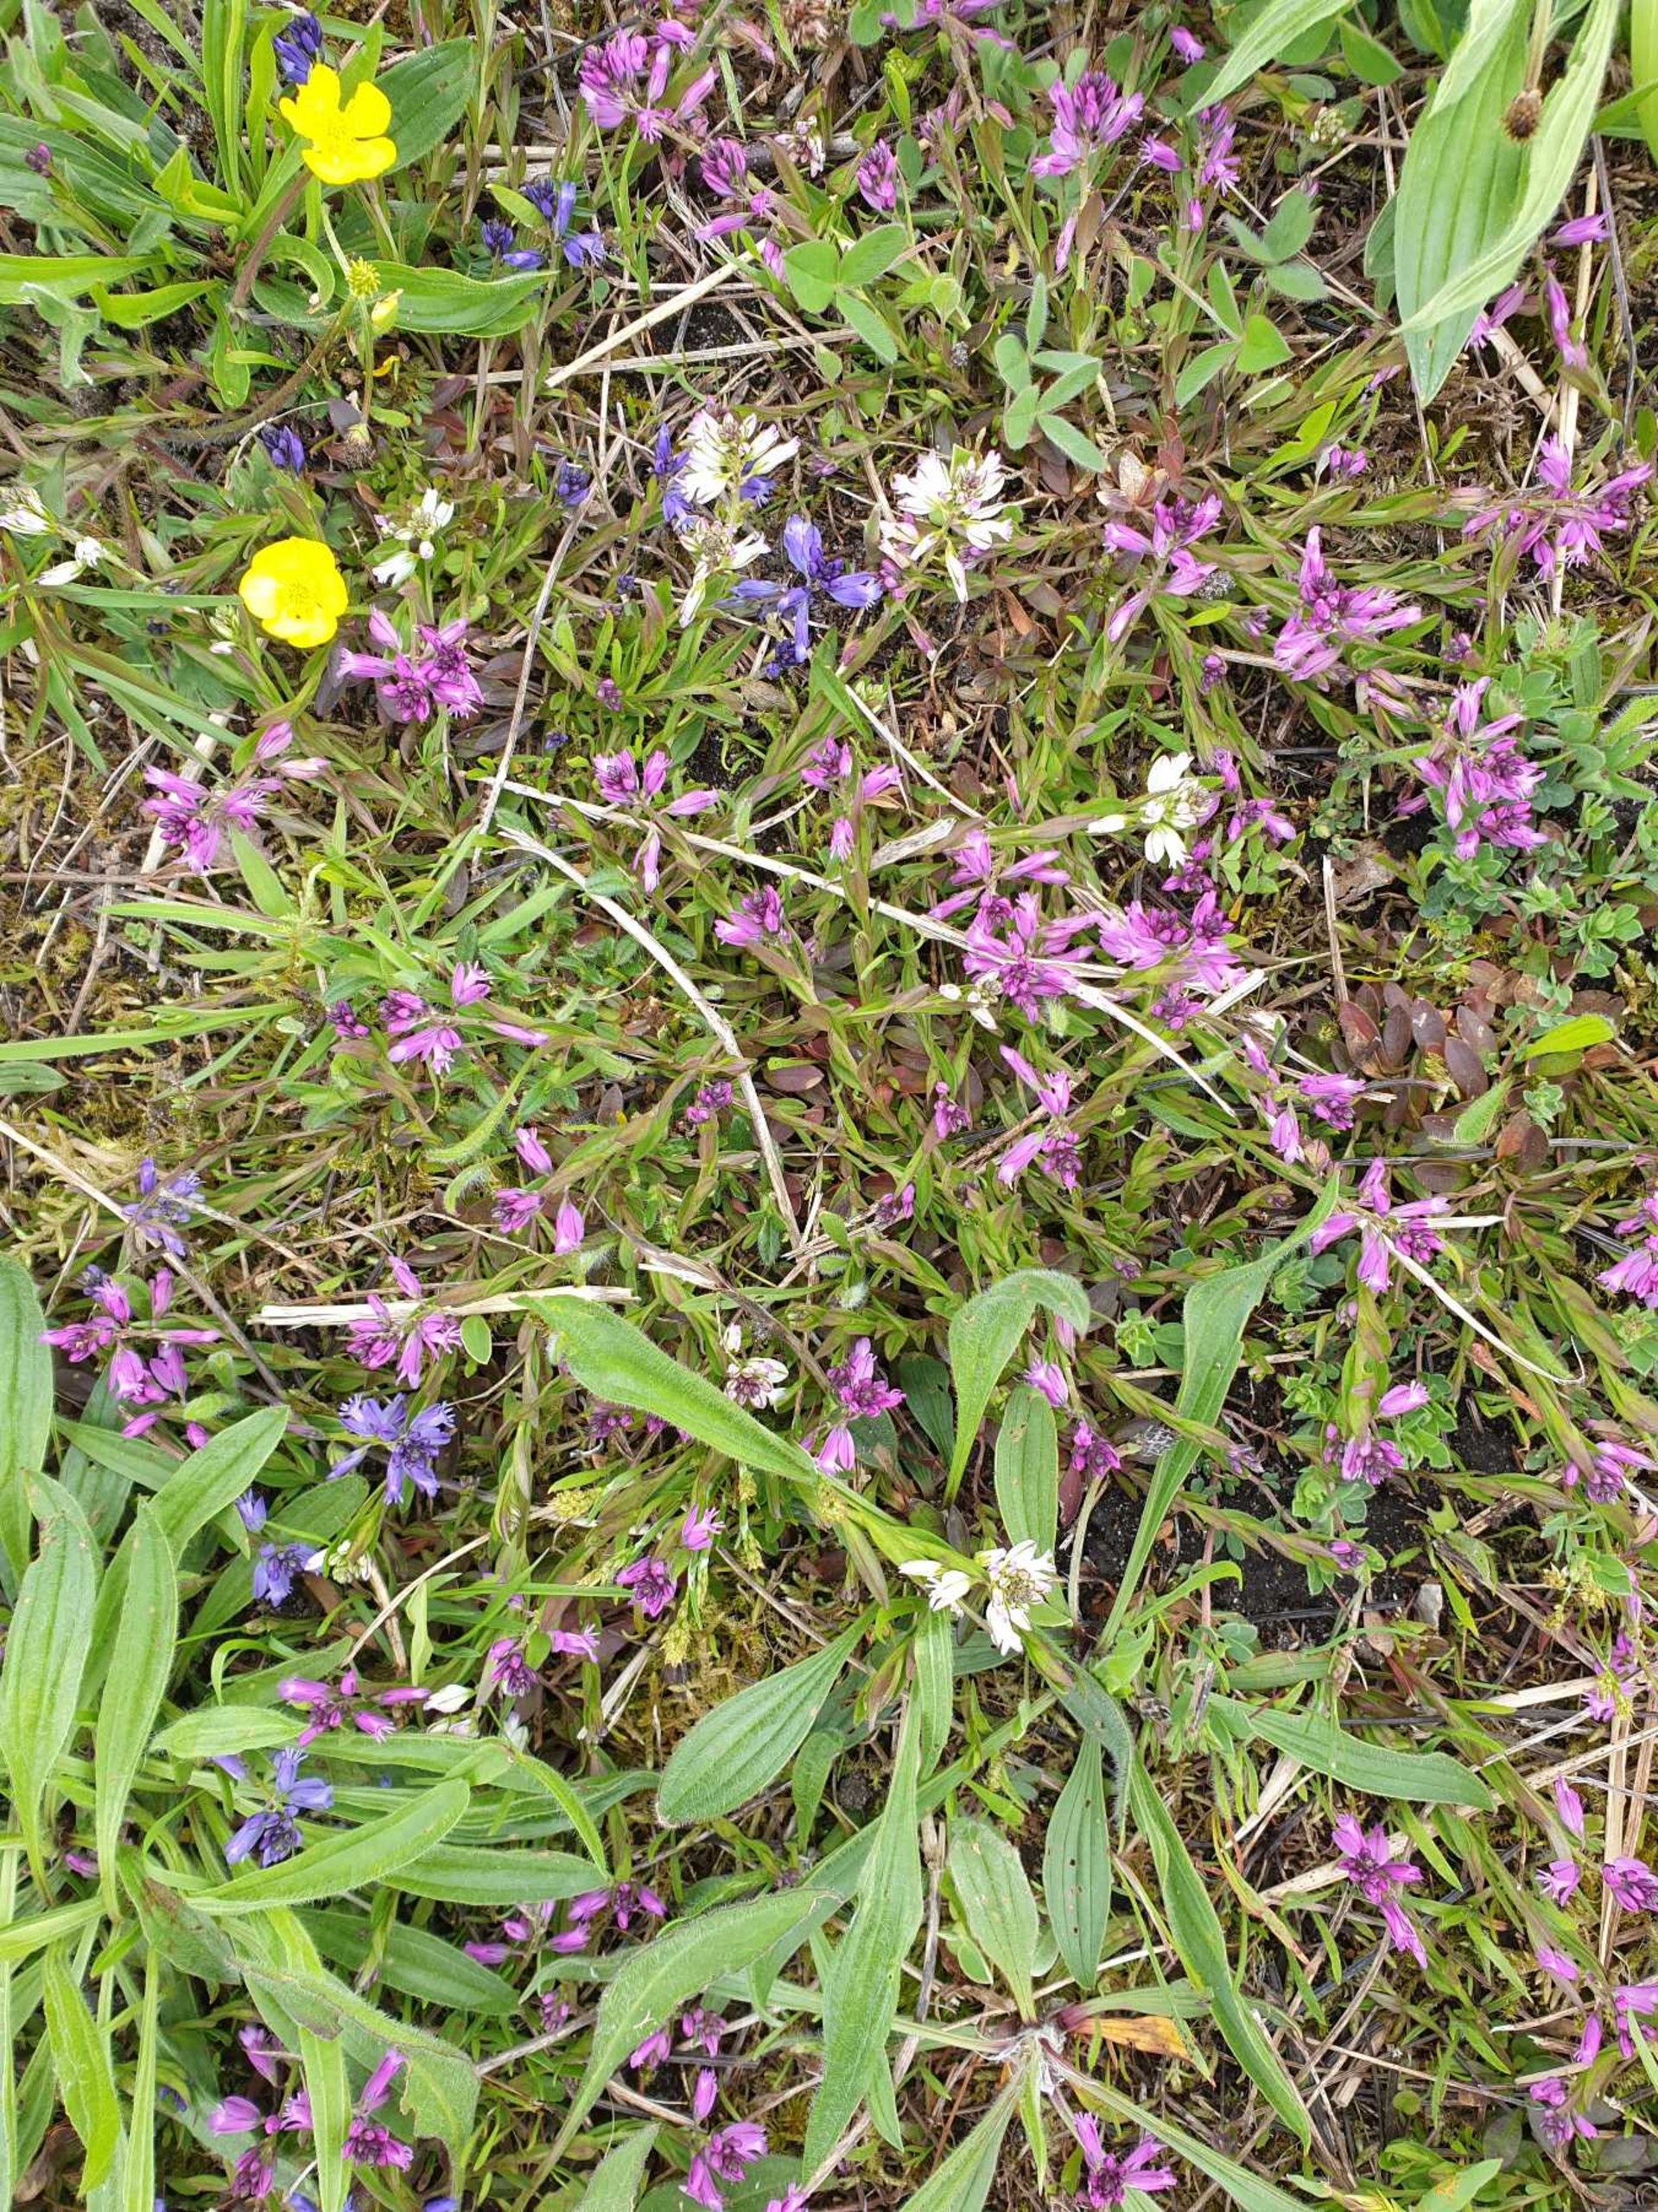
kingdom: Plantae
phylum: Tracheophyta
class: Magnoliopsida
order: Fabales
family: Polygalaceae
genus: Polygala
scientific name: Polygala vulgaris
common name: Almindelig mælkeurt
